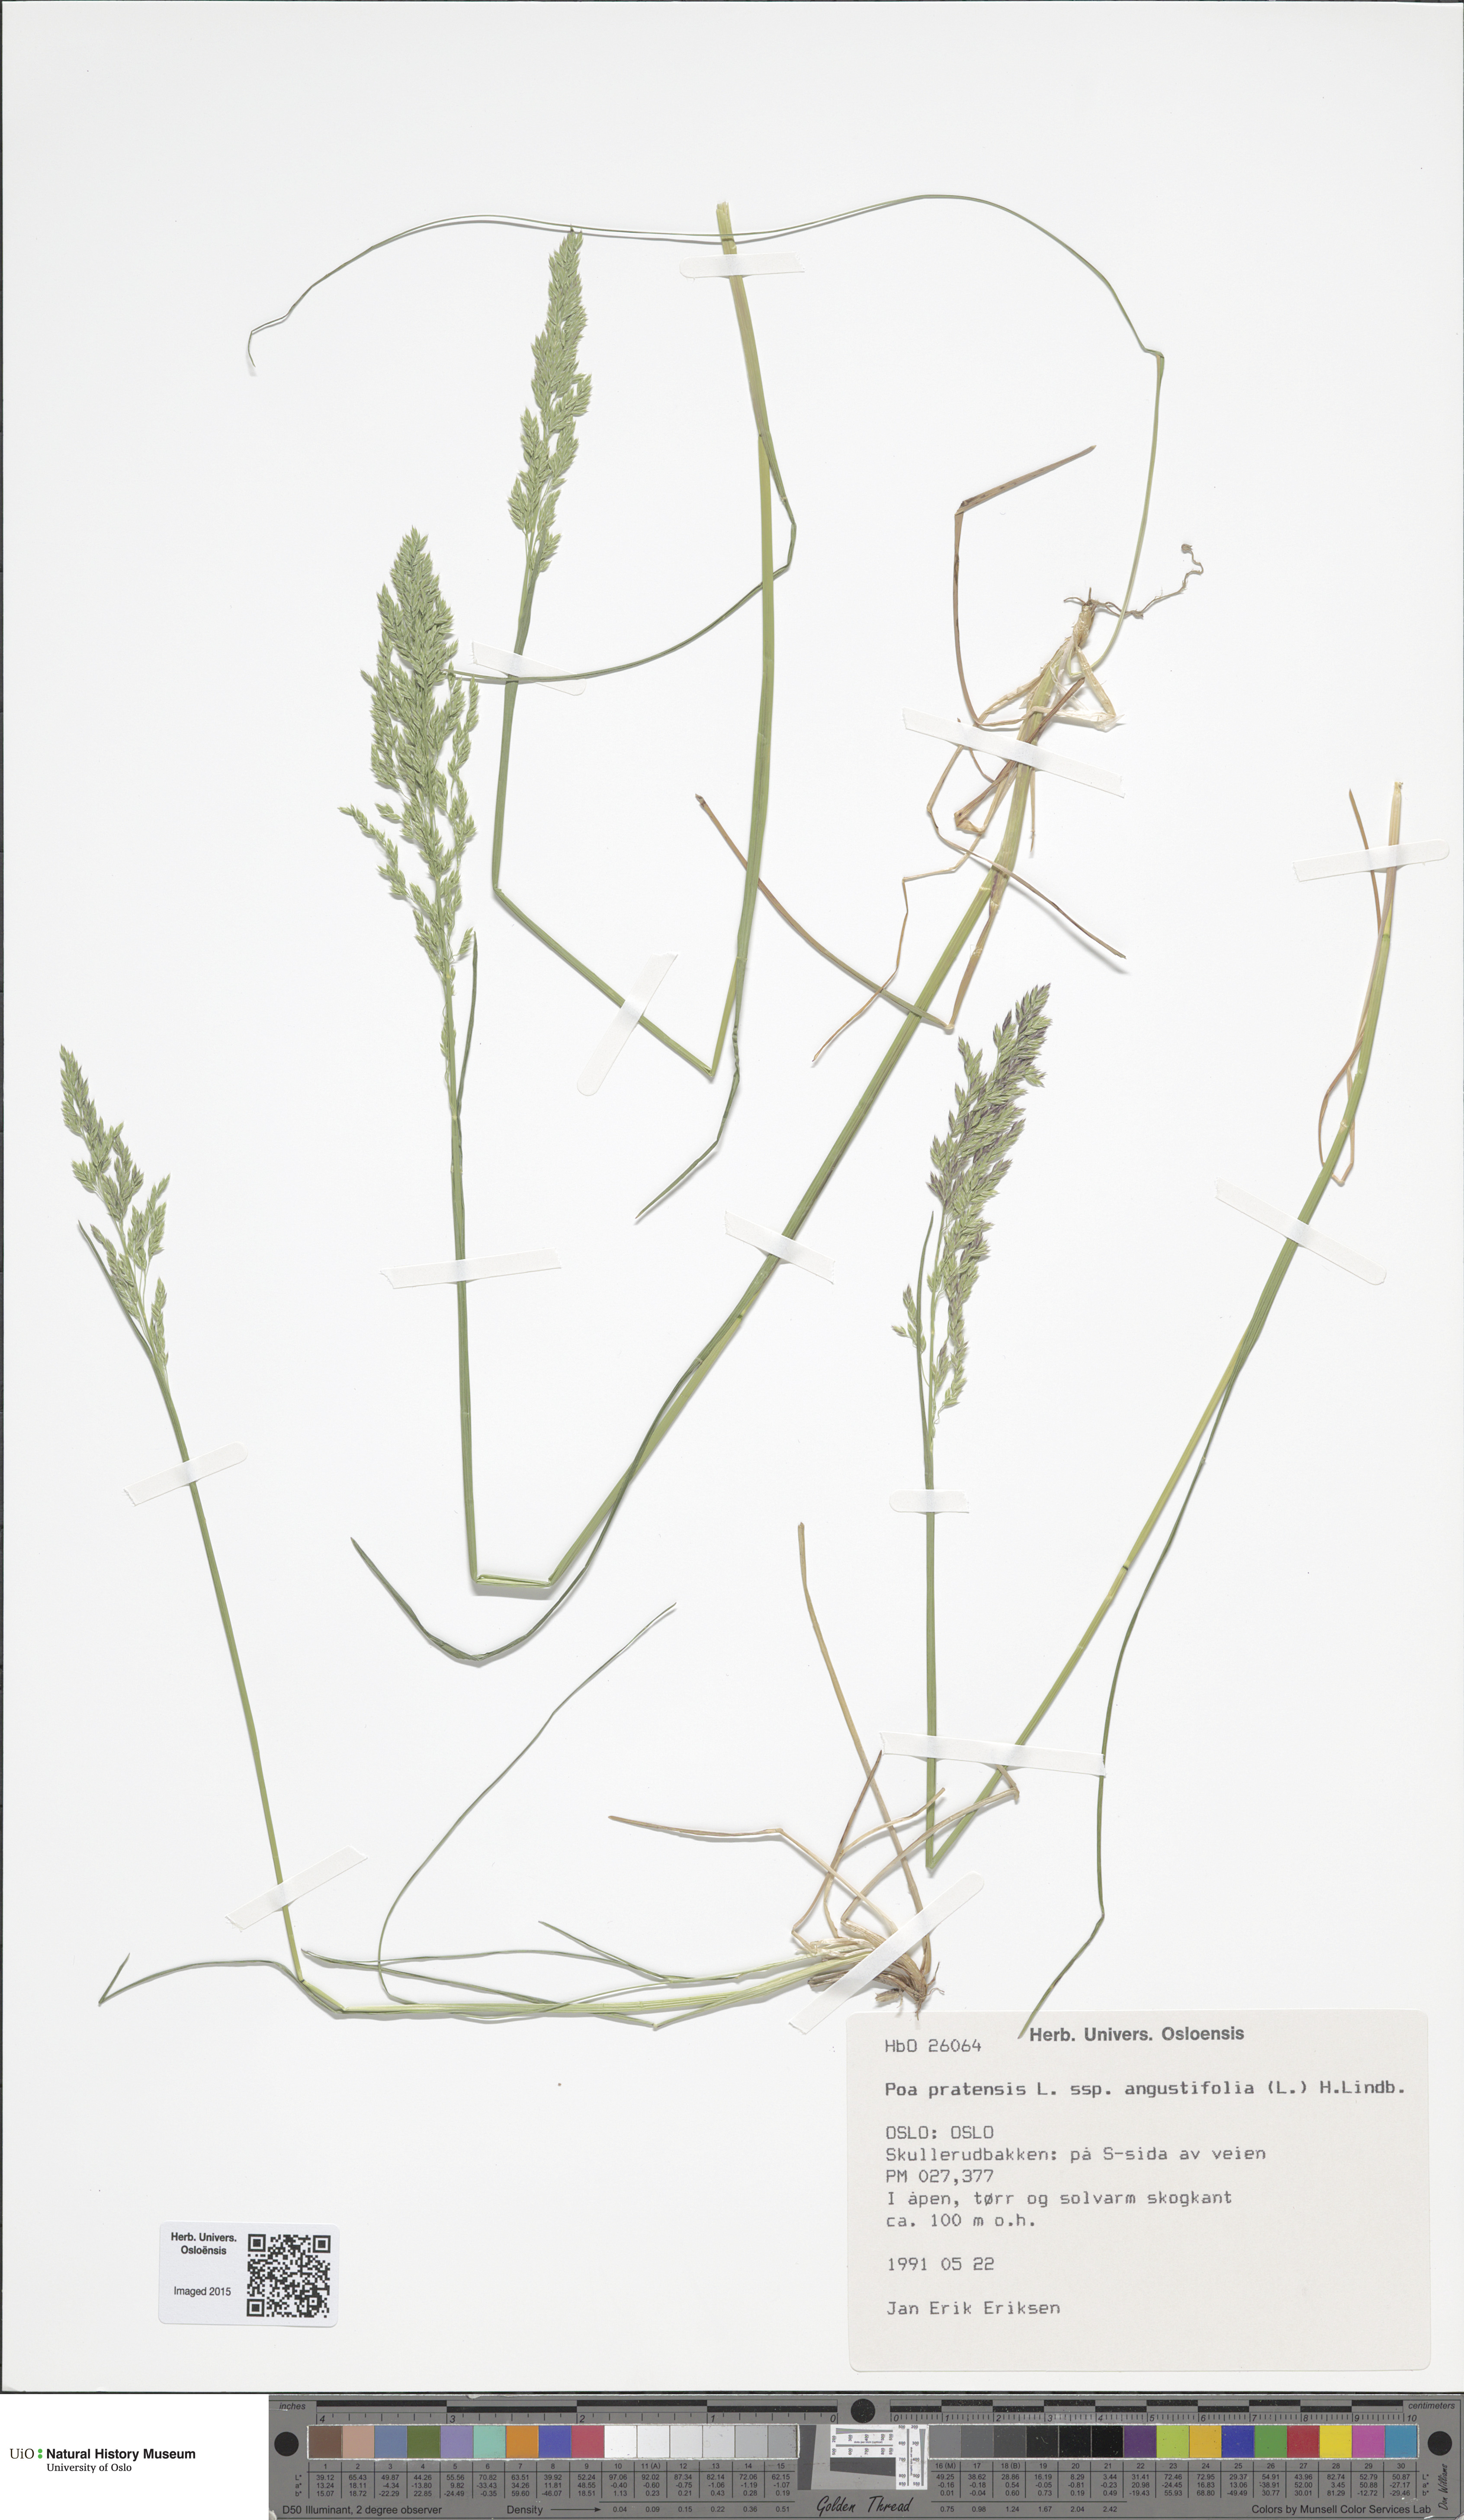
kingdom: Plantae
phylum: Tracheophyta
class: Liliopsida
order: Poales
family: Poaceae
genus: Poa
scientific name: Poa angustifolia
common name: Narrow-leaved meadow-grass
